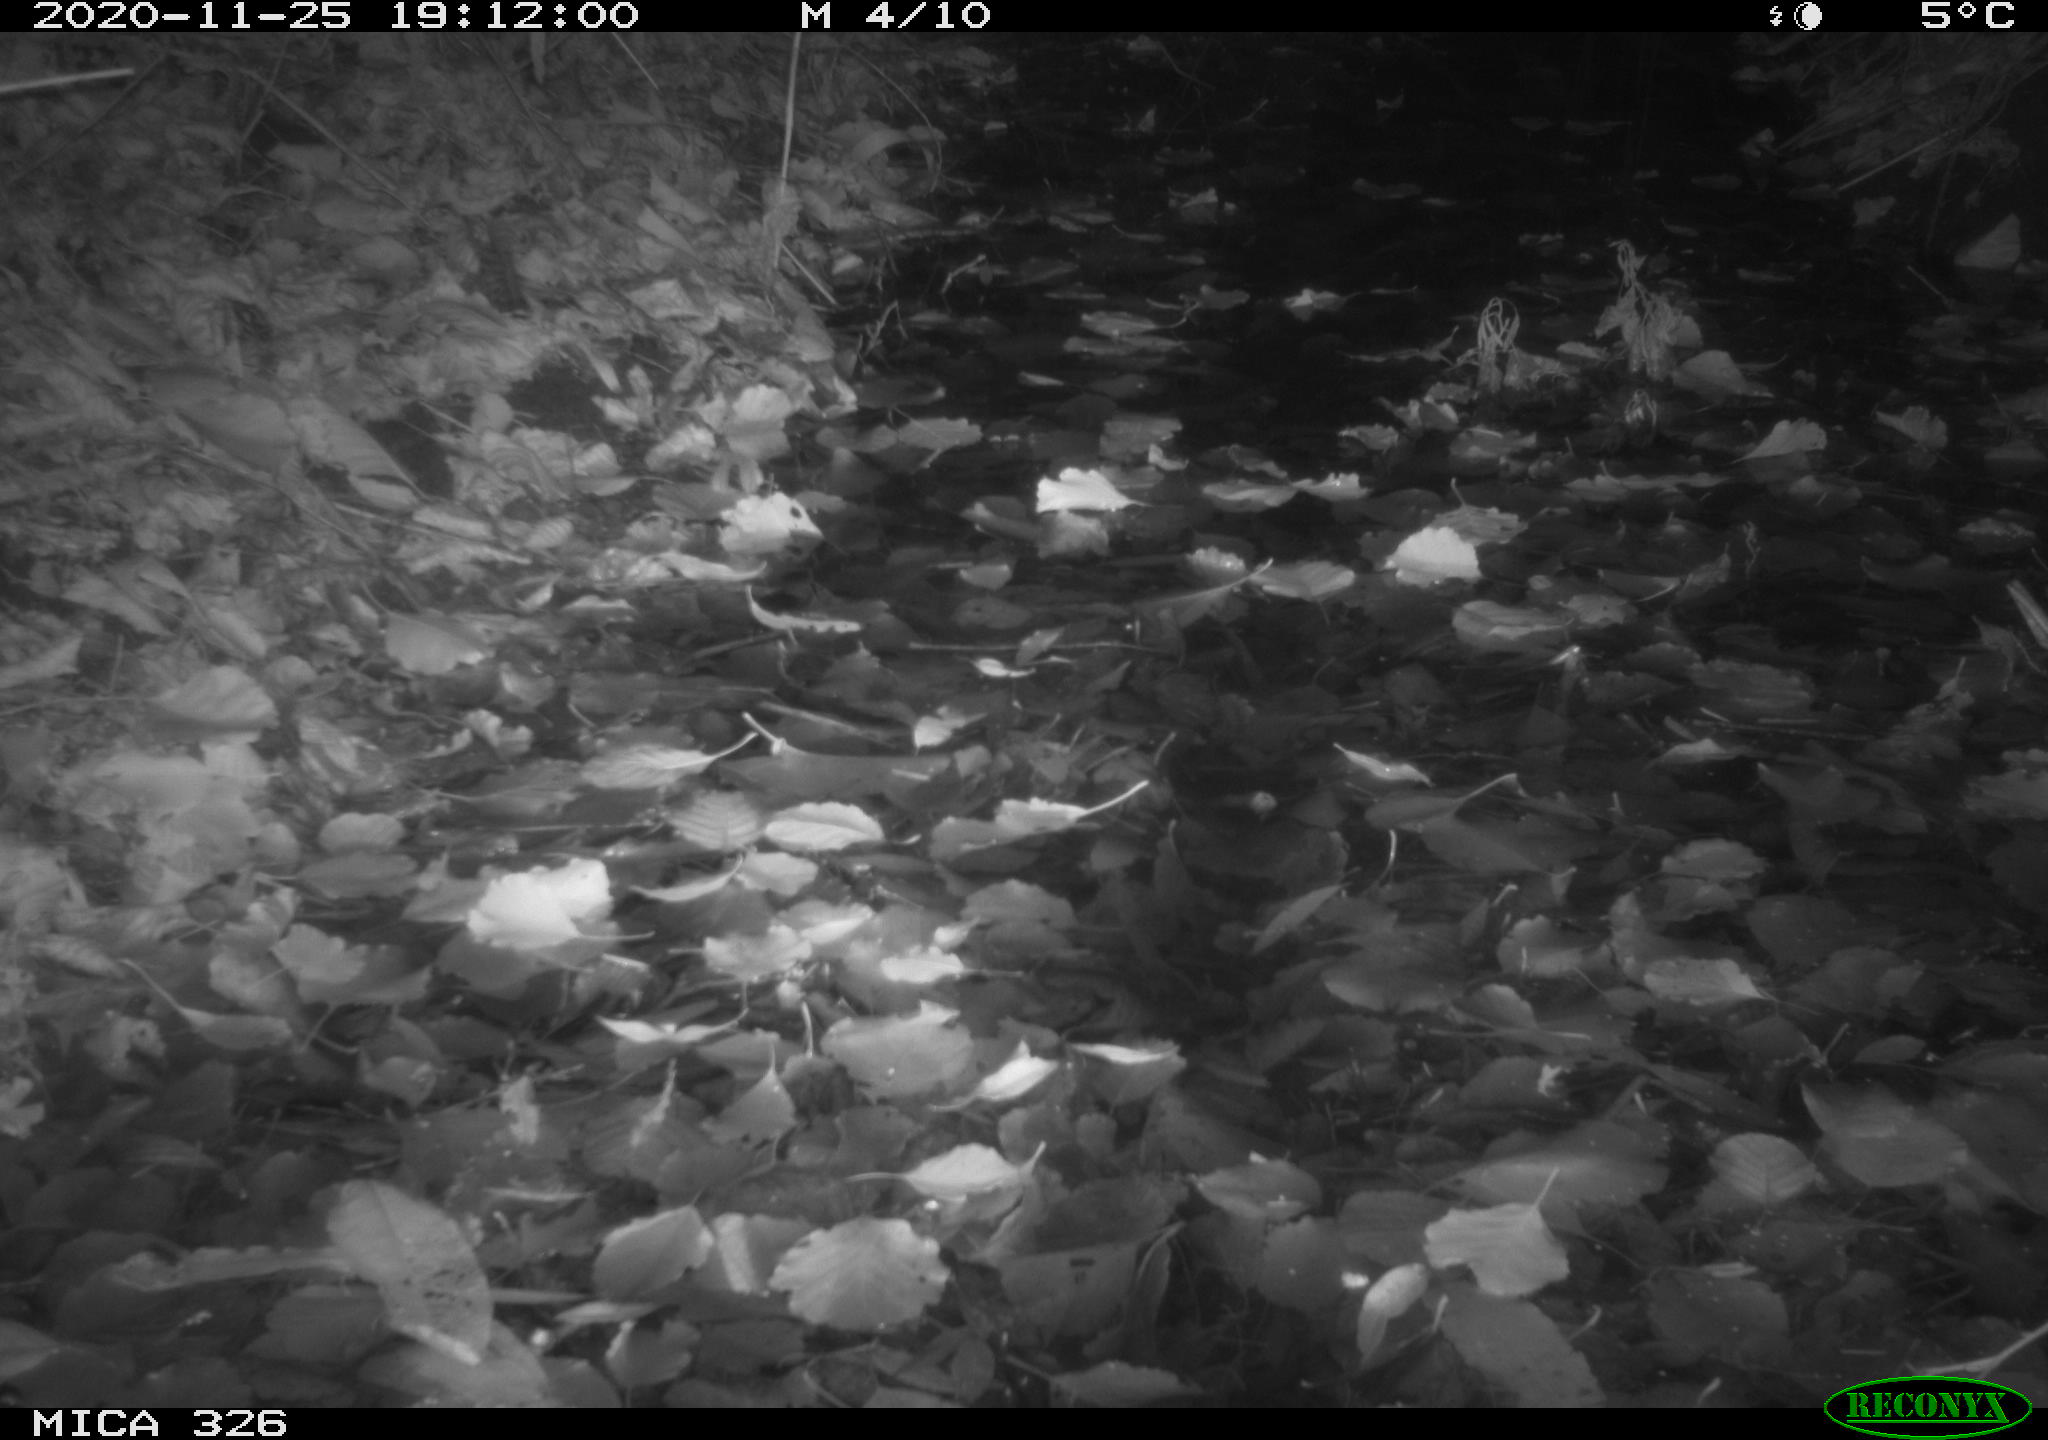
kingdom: Animalia
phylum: Chordata
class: Mammalia
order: Rodentia
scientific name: Rodentia
